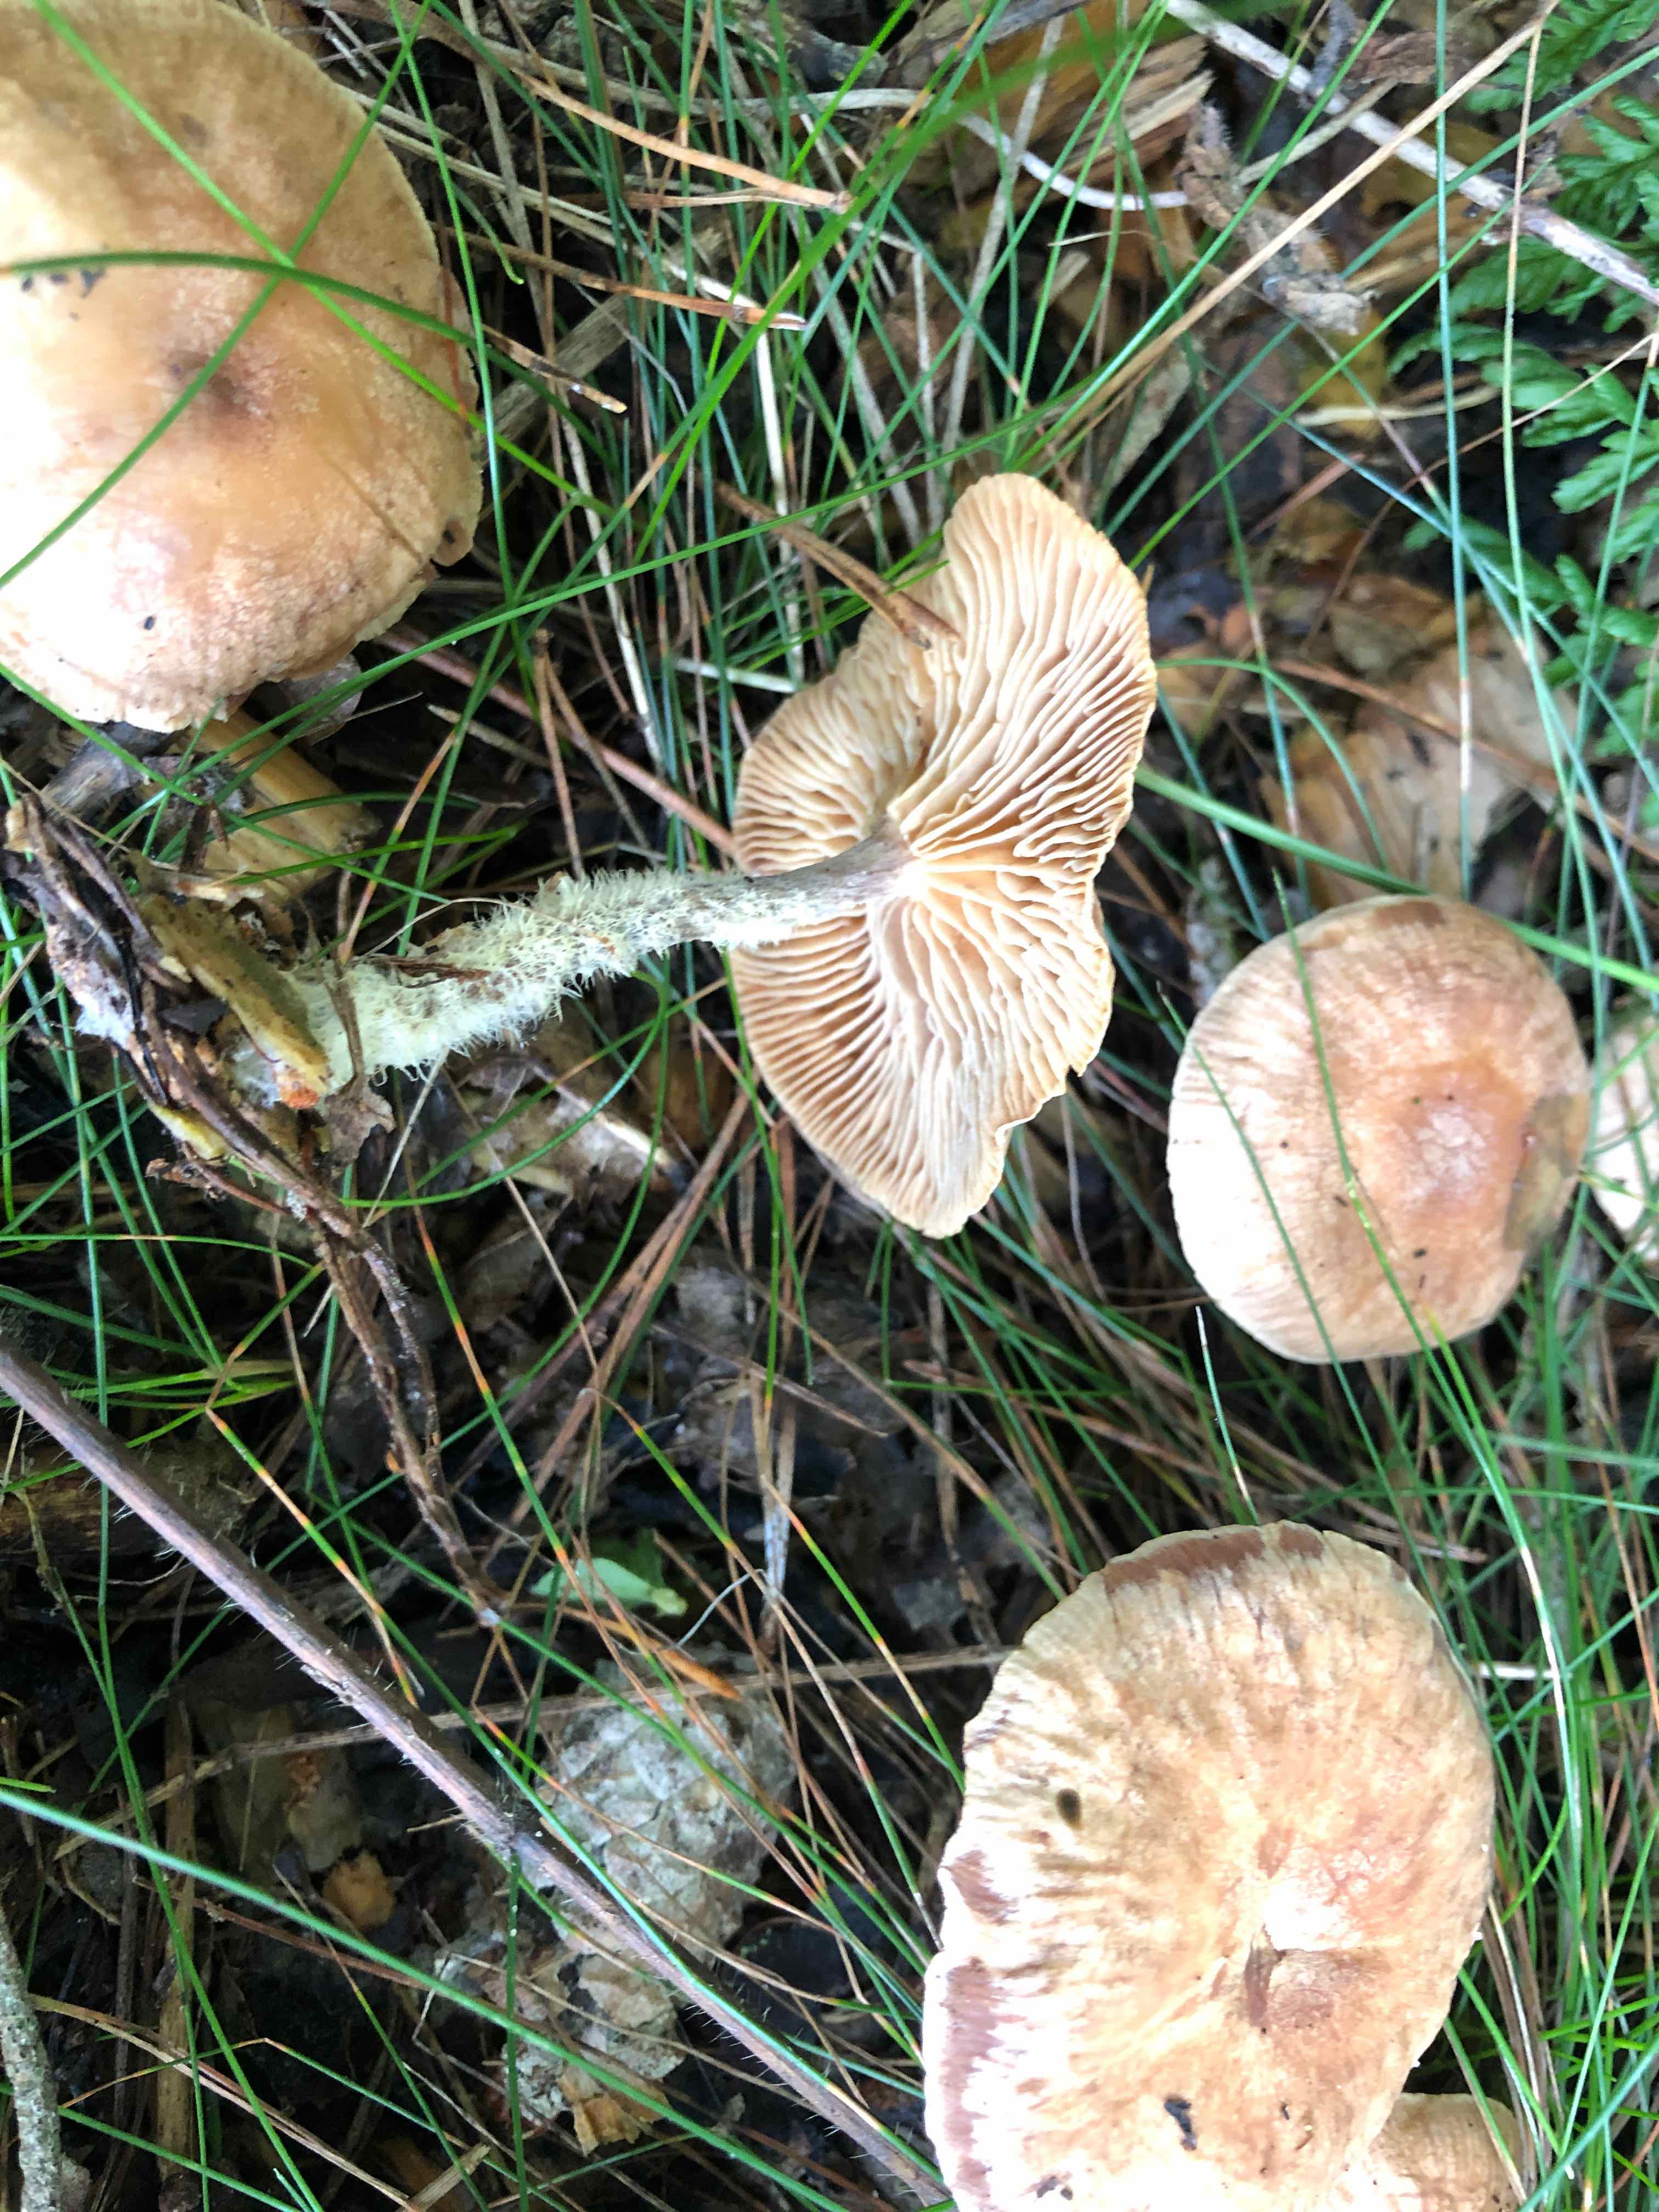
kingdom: Fungi
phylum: Basidiomycota
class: Agaricomycetes
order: Agaricales
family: Omphalotaceae
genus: Collybiopsis
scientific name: Collybiopsis peronata
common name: bestøvlet fladhat
